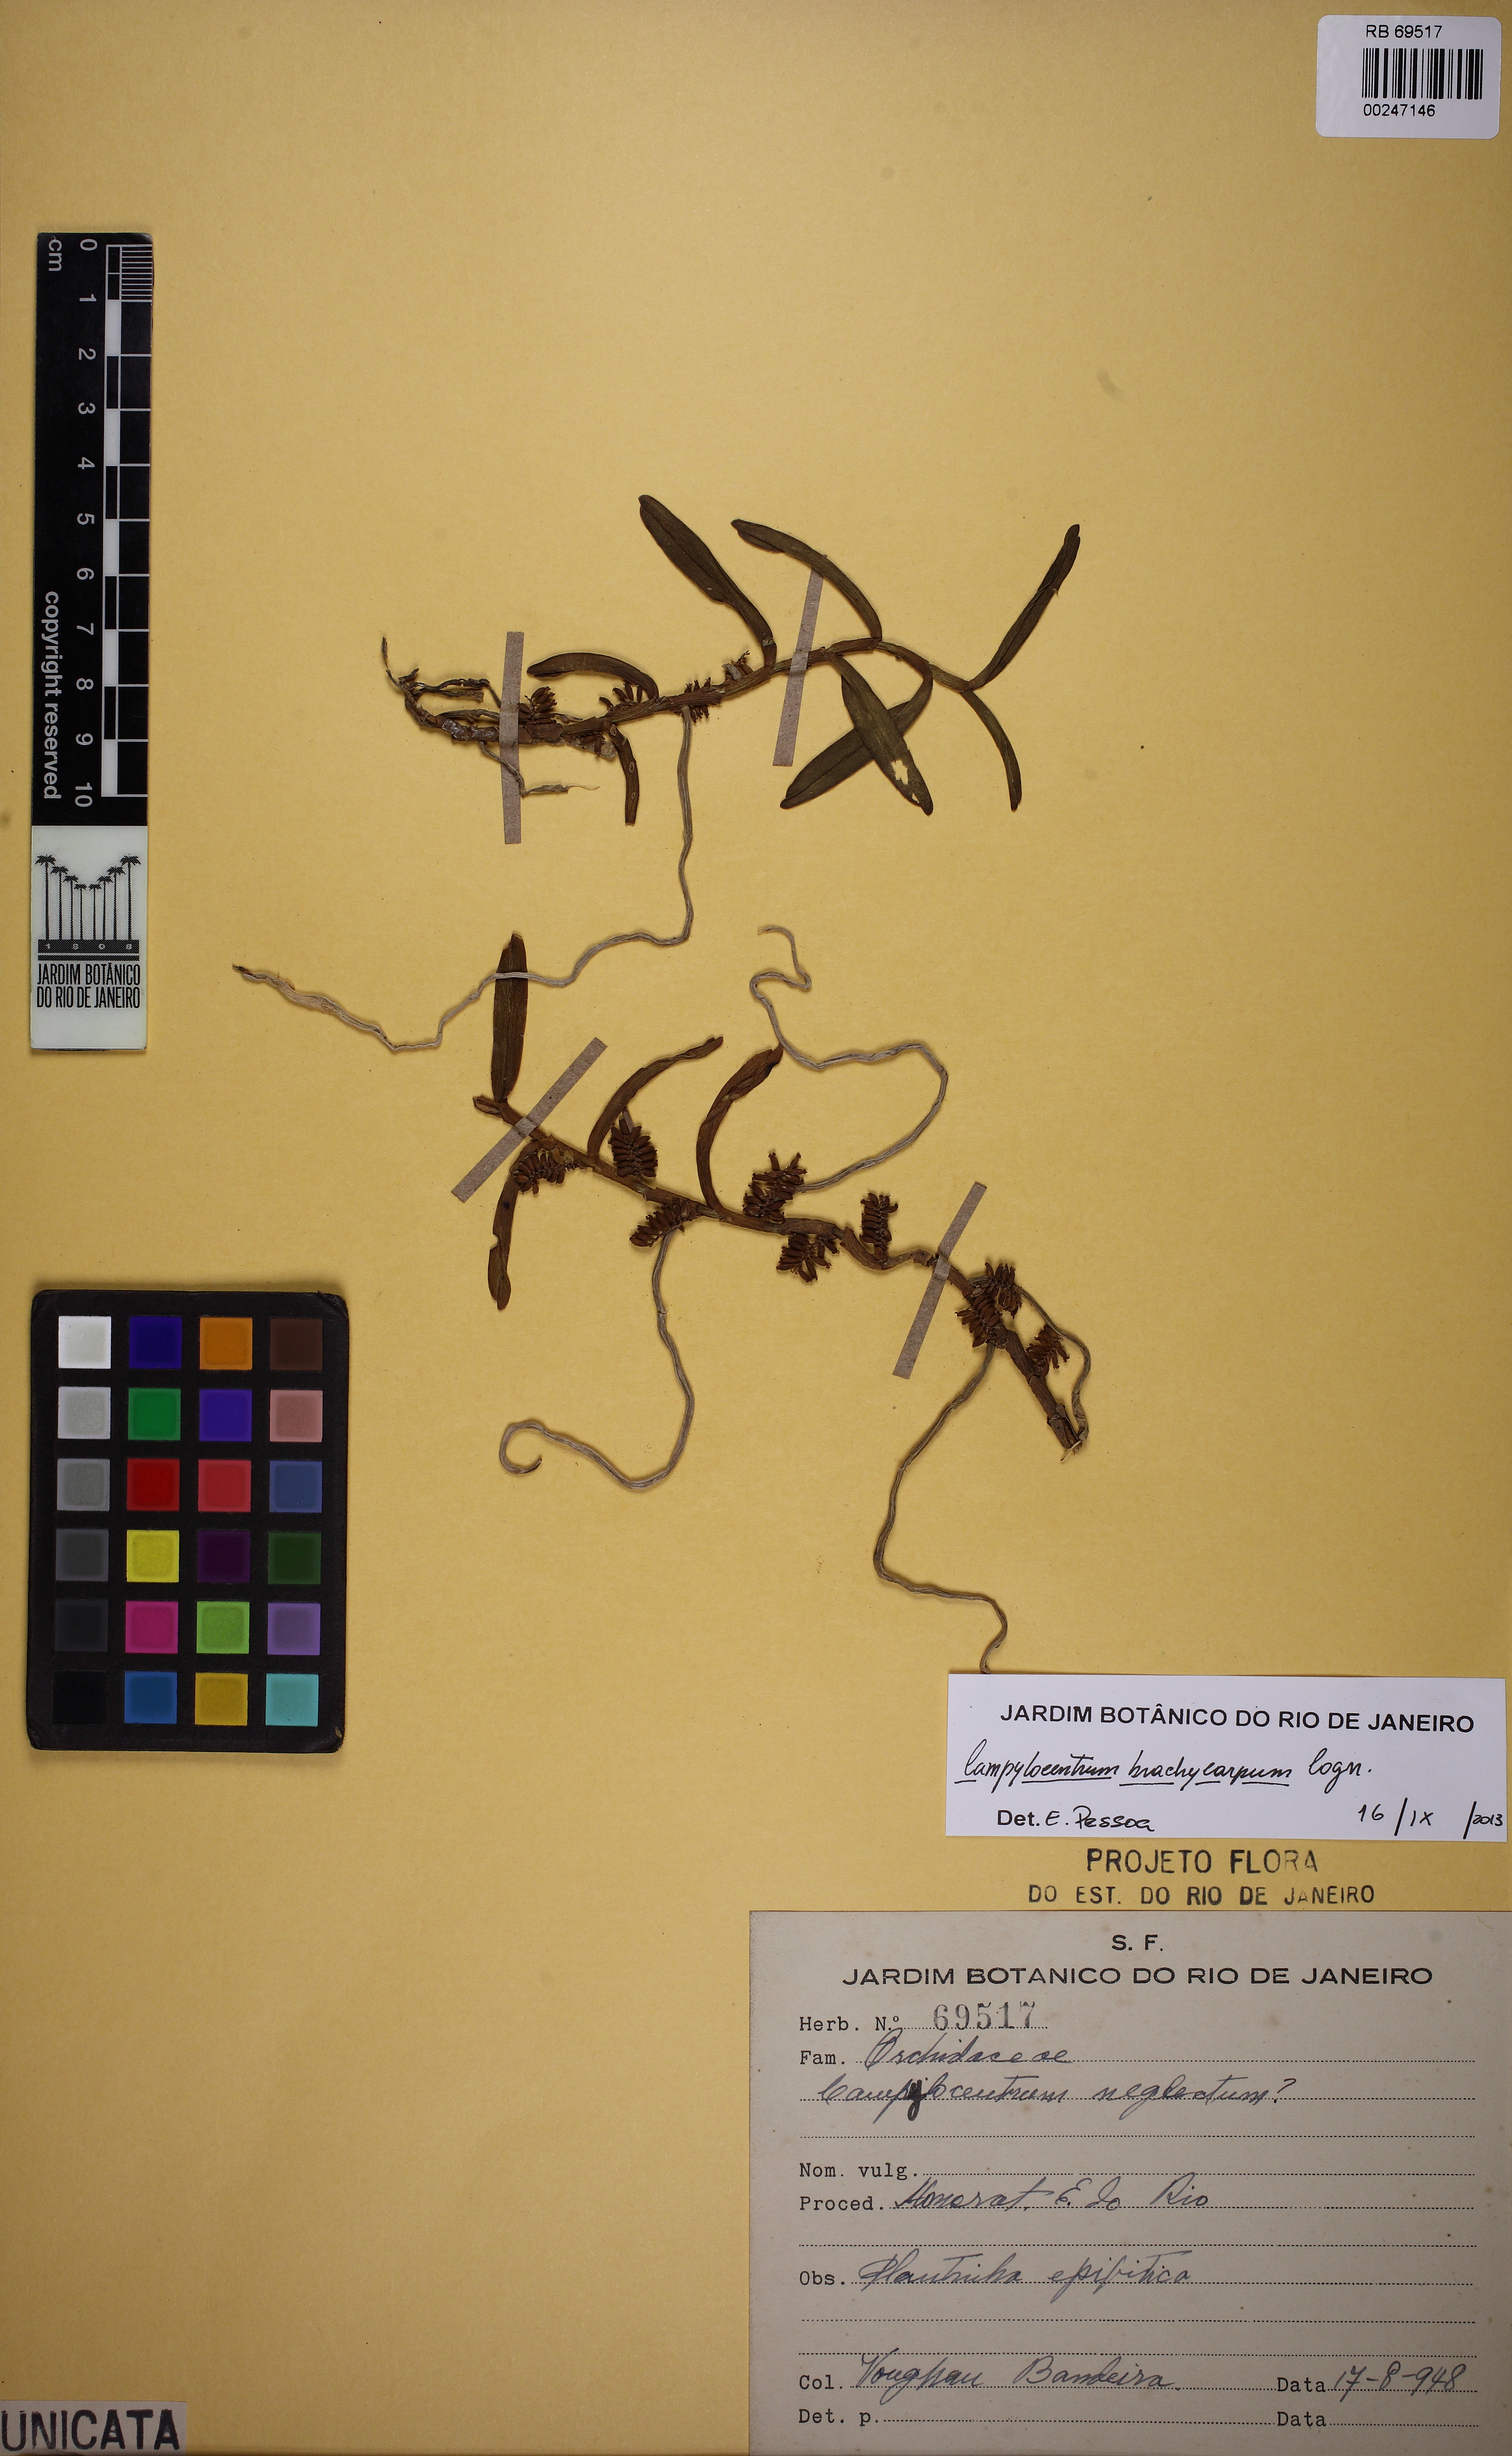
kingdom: Plantae
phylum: Tracheophyta
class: Liliopsida
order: Asparagales
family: Orchidaceae
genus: Campylocentrum
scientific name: Campylocentrum brachycarpum
